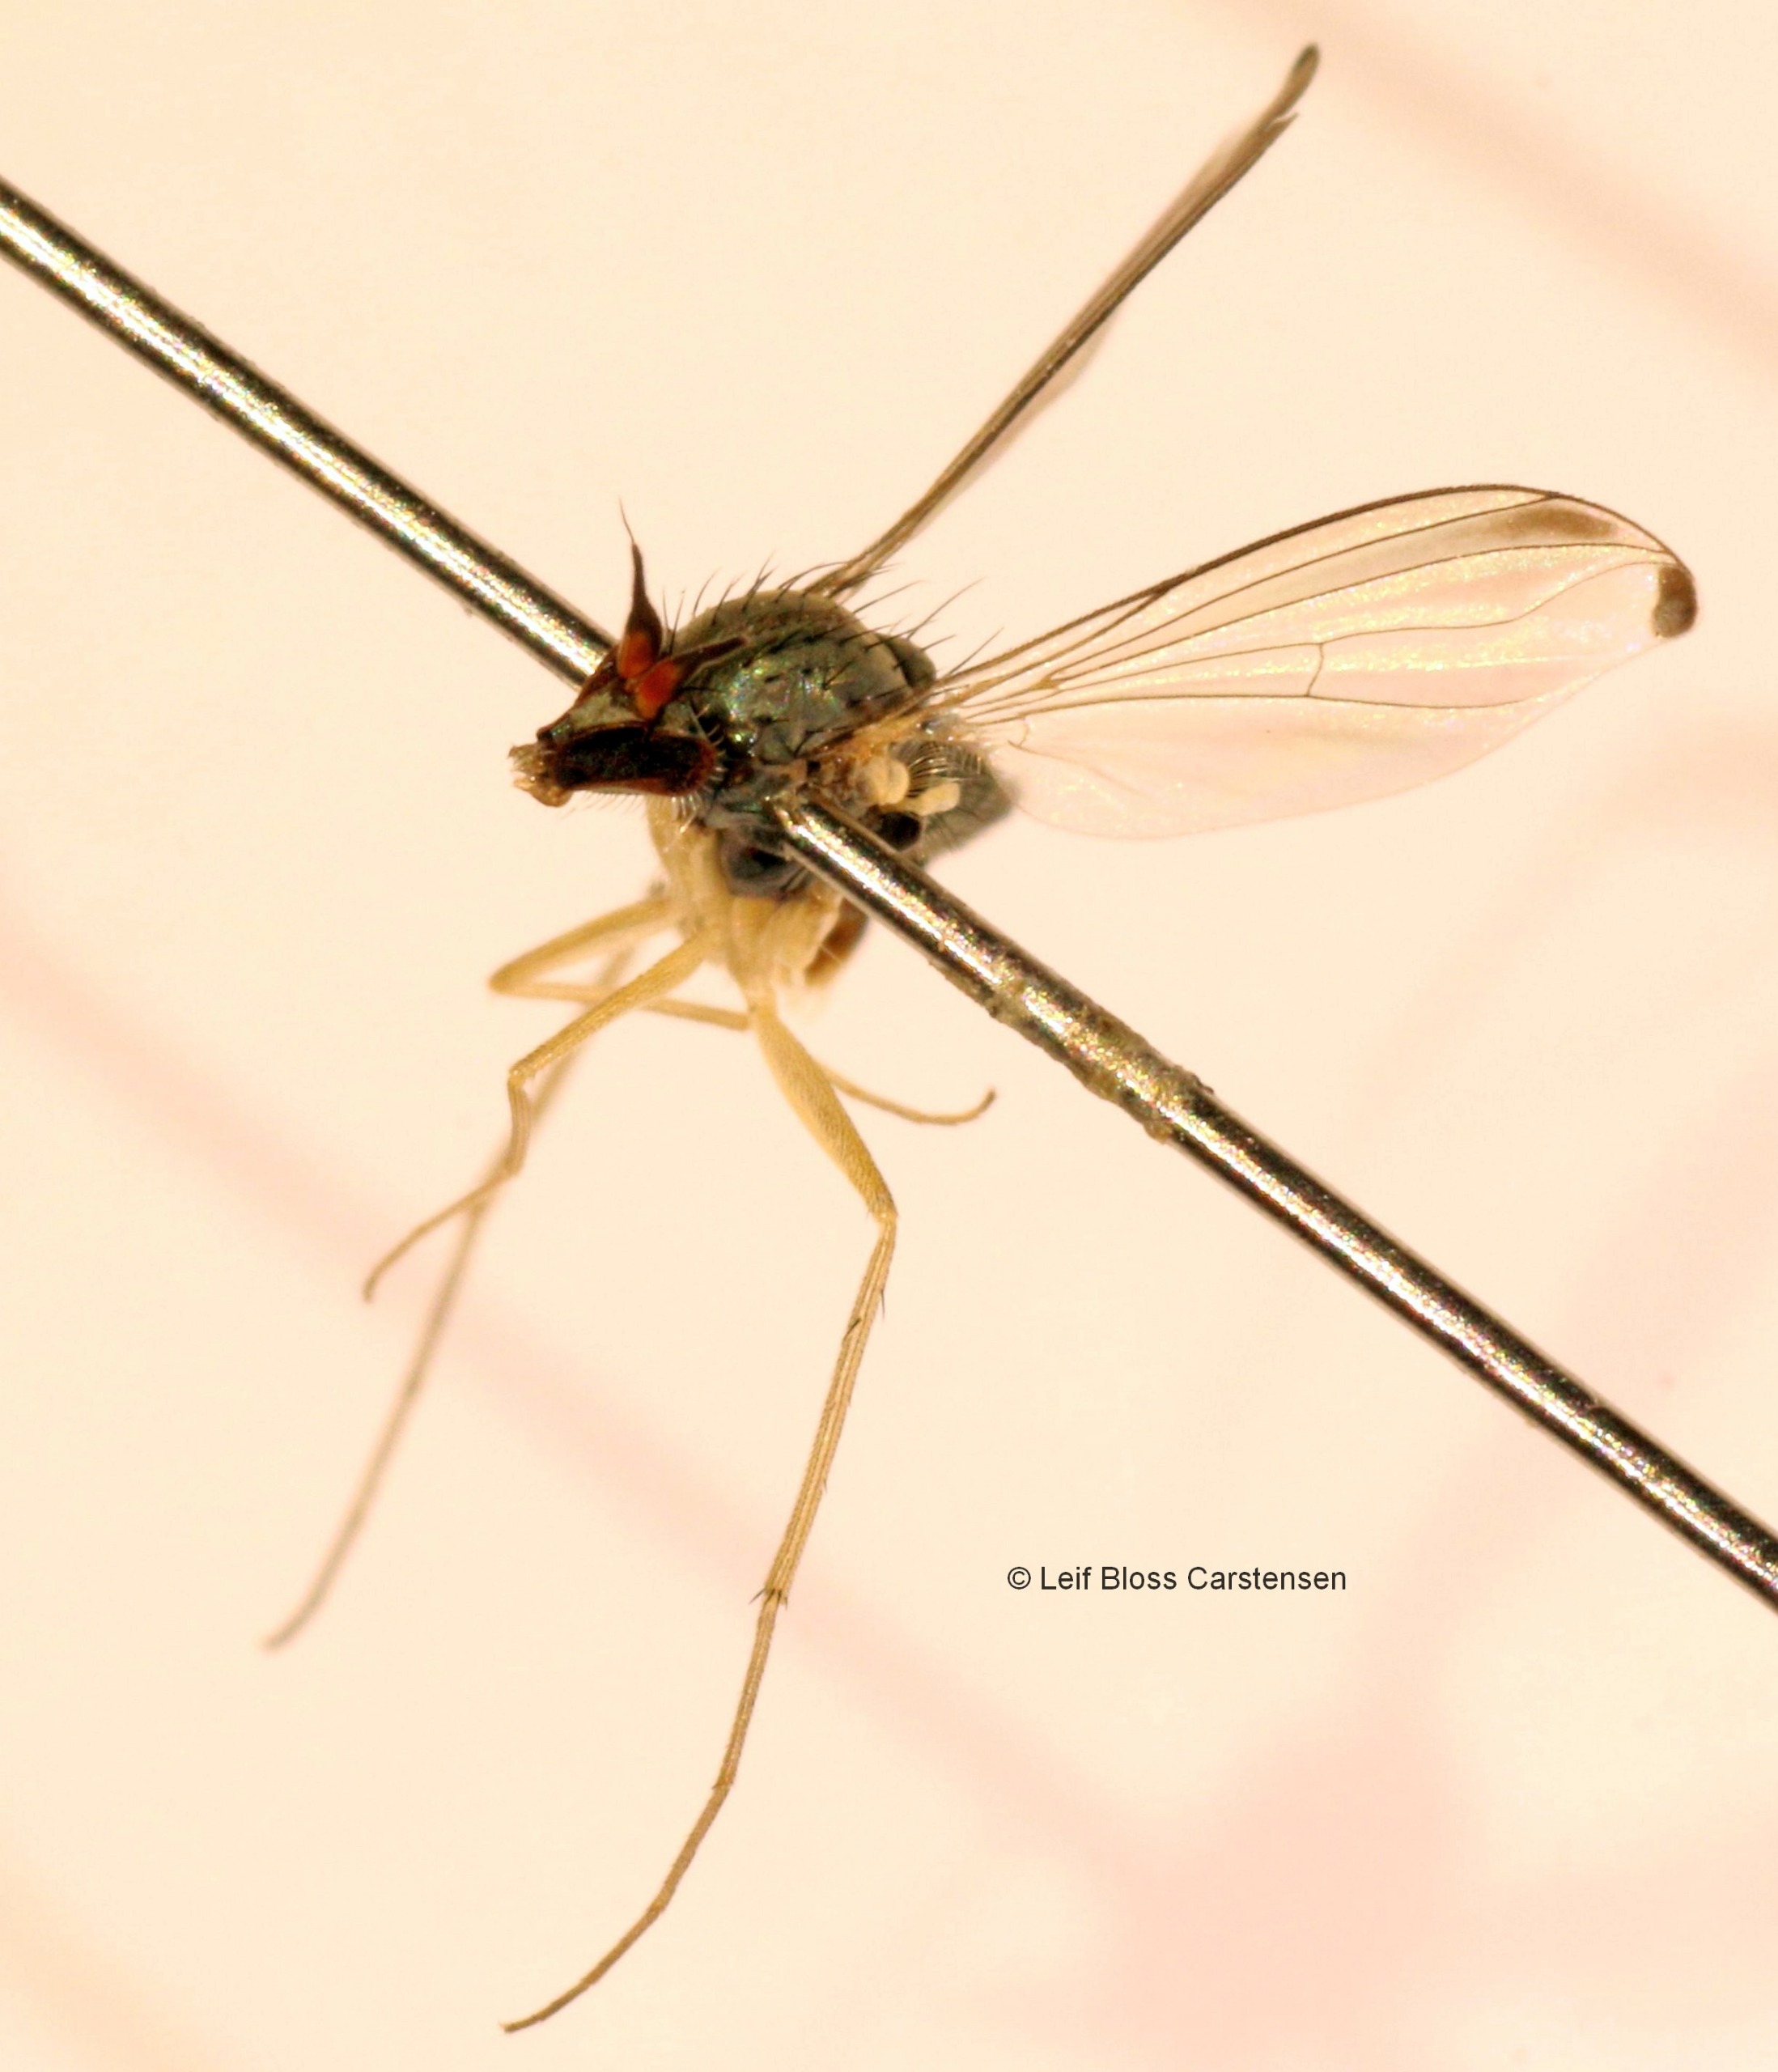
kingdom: Animalia
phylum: Arthropoda
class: Insecta
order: Diptera
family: Dolichopodidae
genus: Systenus
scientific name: Systenus scholtzii
